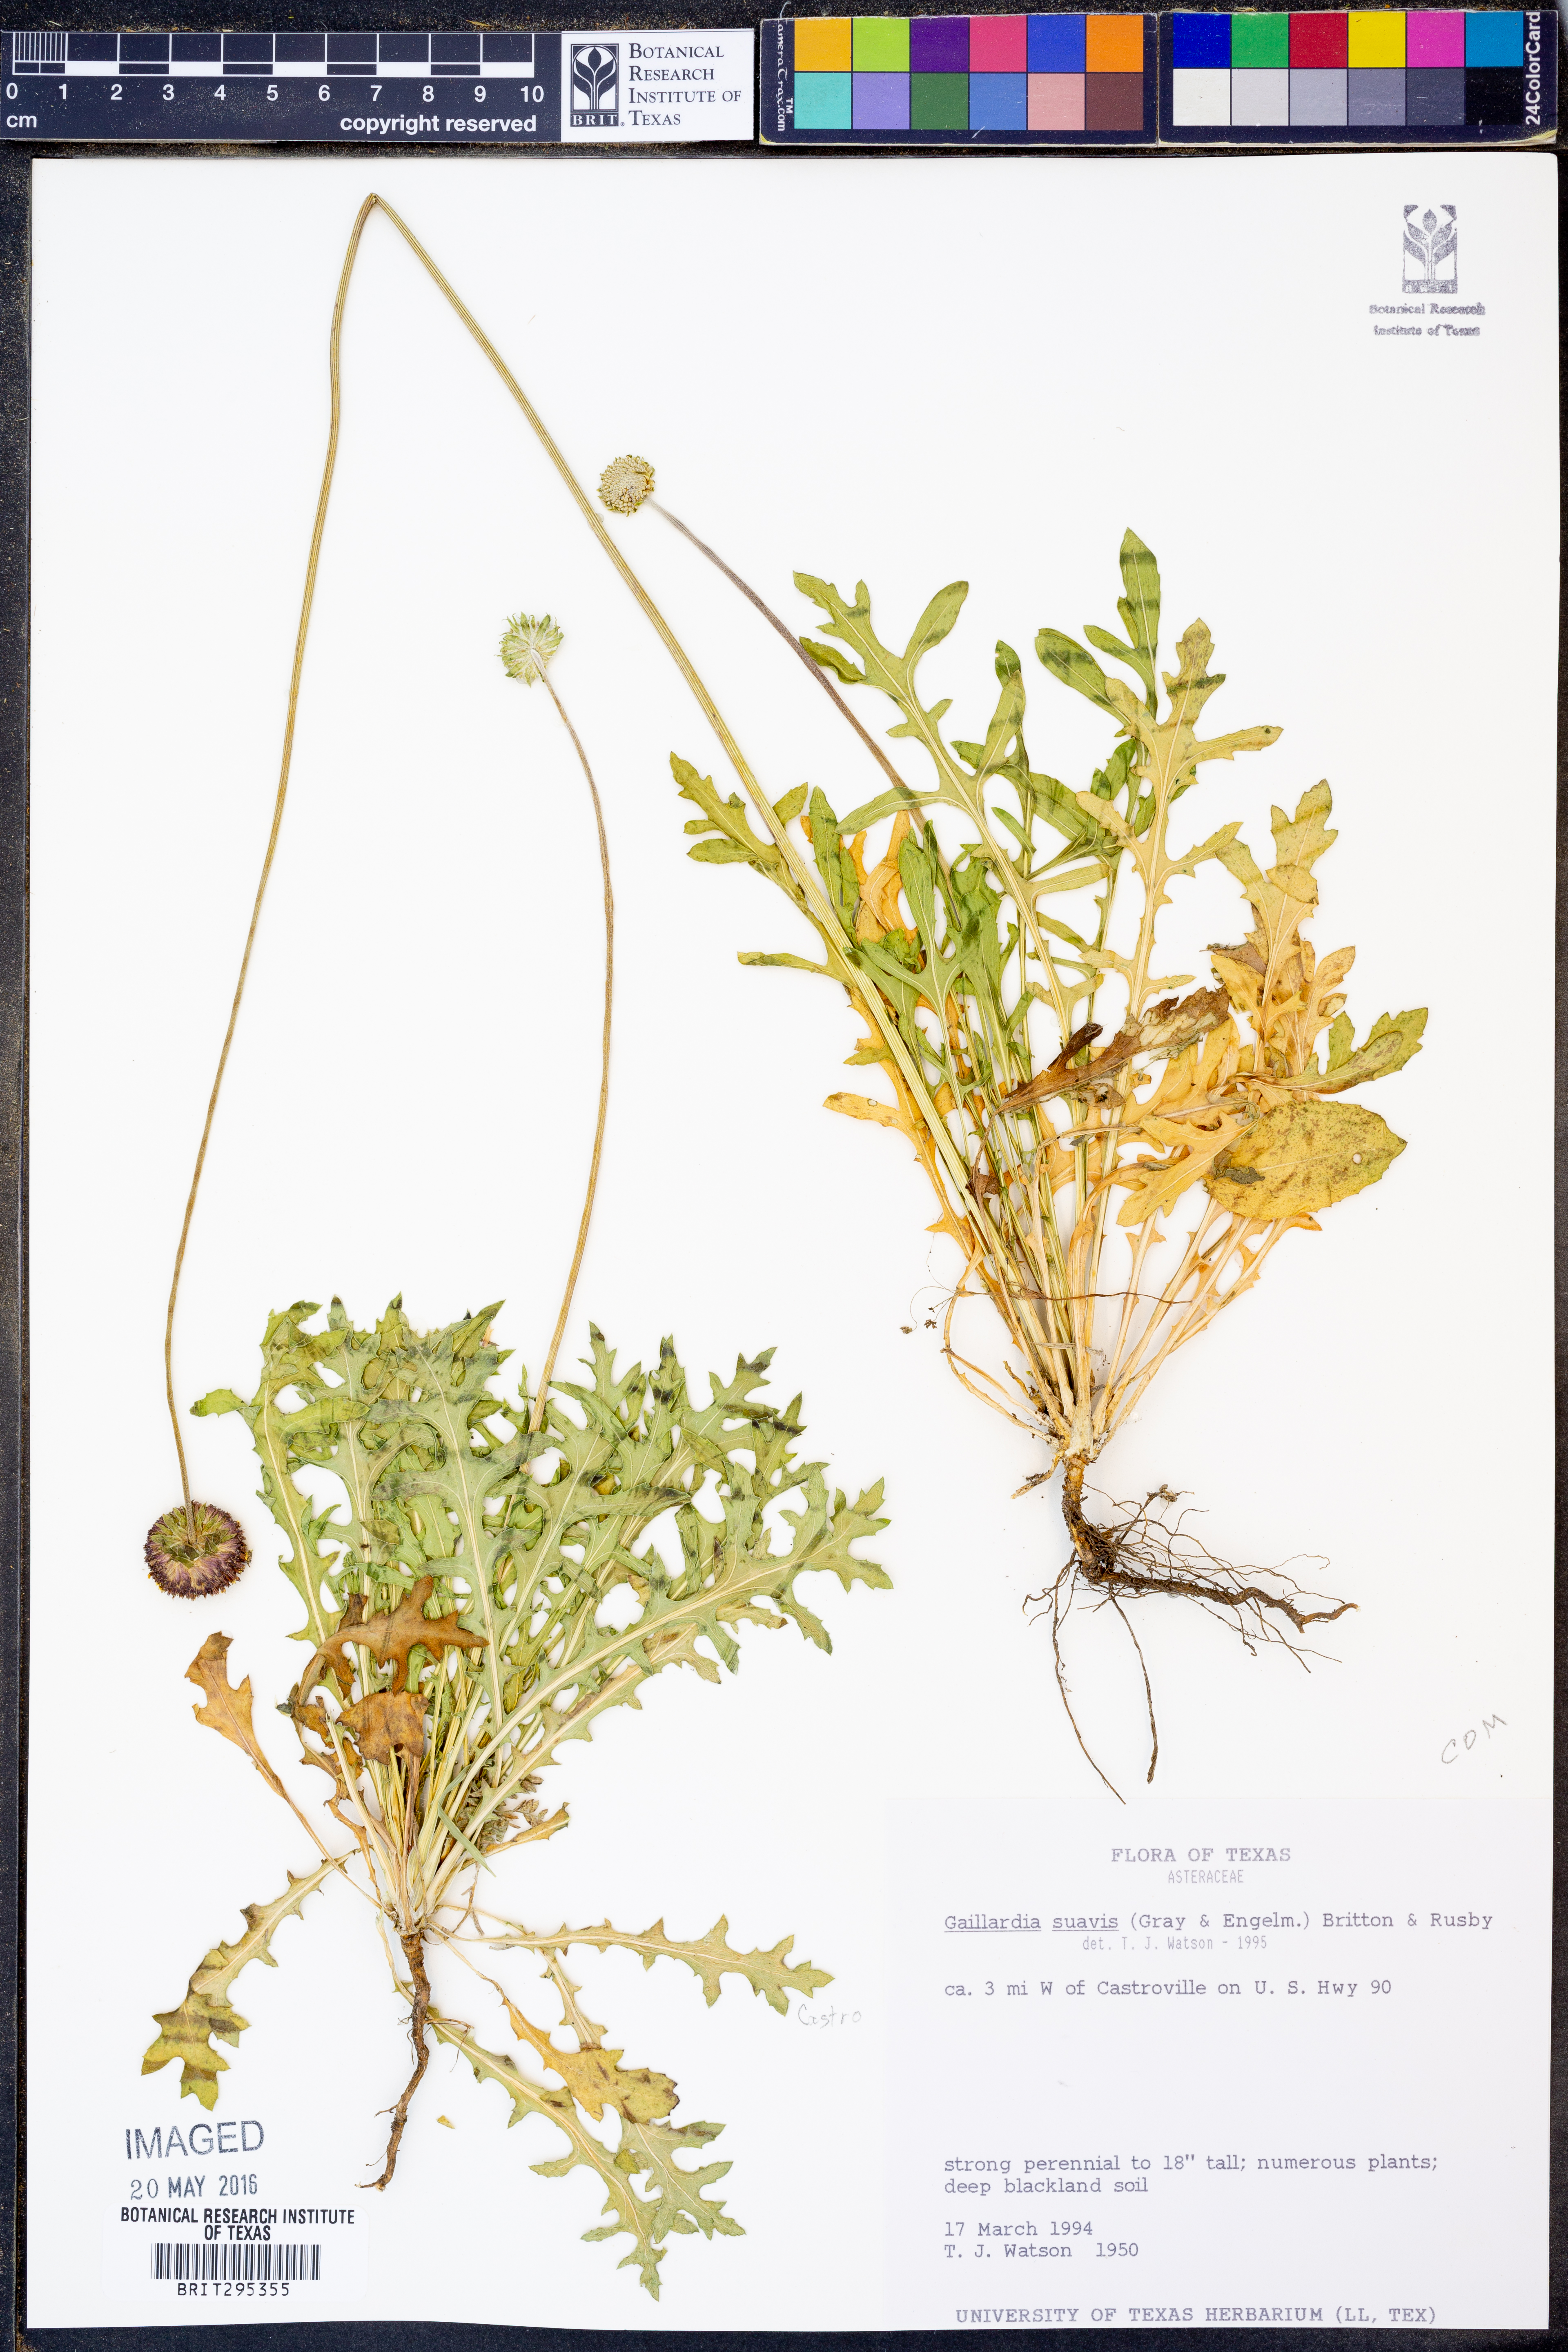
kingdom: Plantae
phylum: Tracheophyta
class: Magnoliopsida
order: Asterales
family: Asteraceae
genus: Gaillardia
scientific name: Gaillardia suavis
